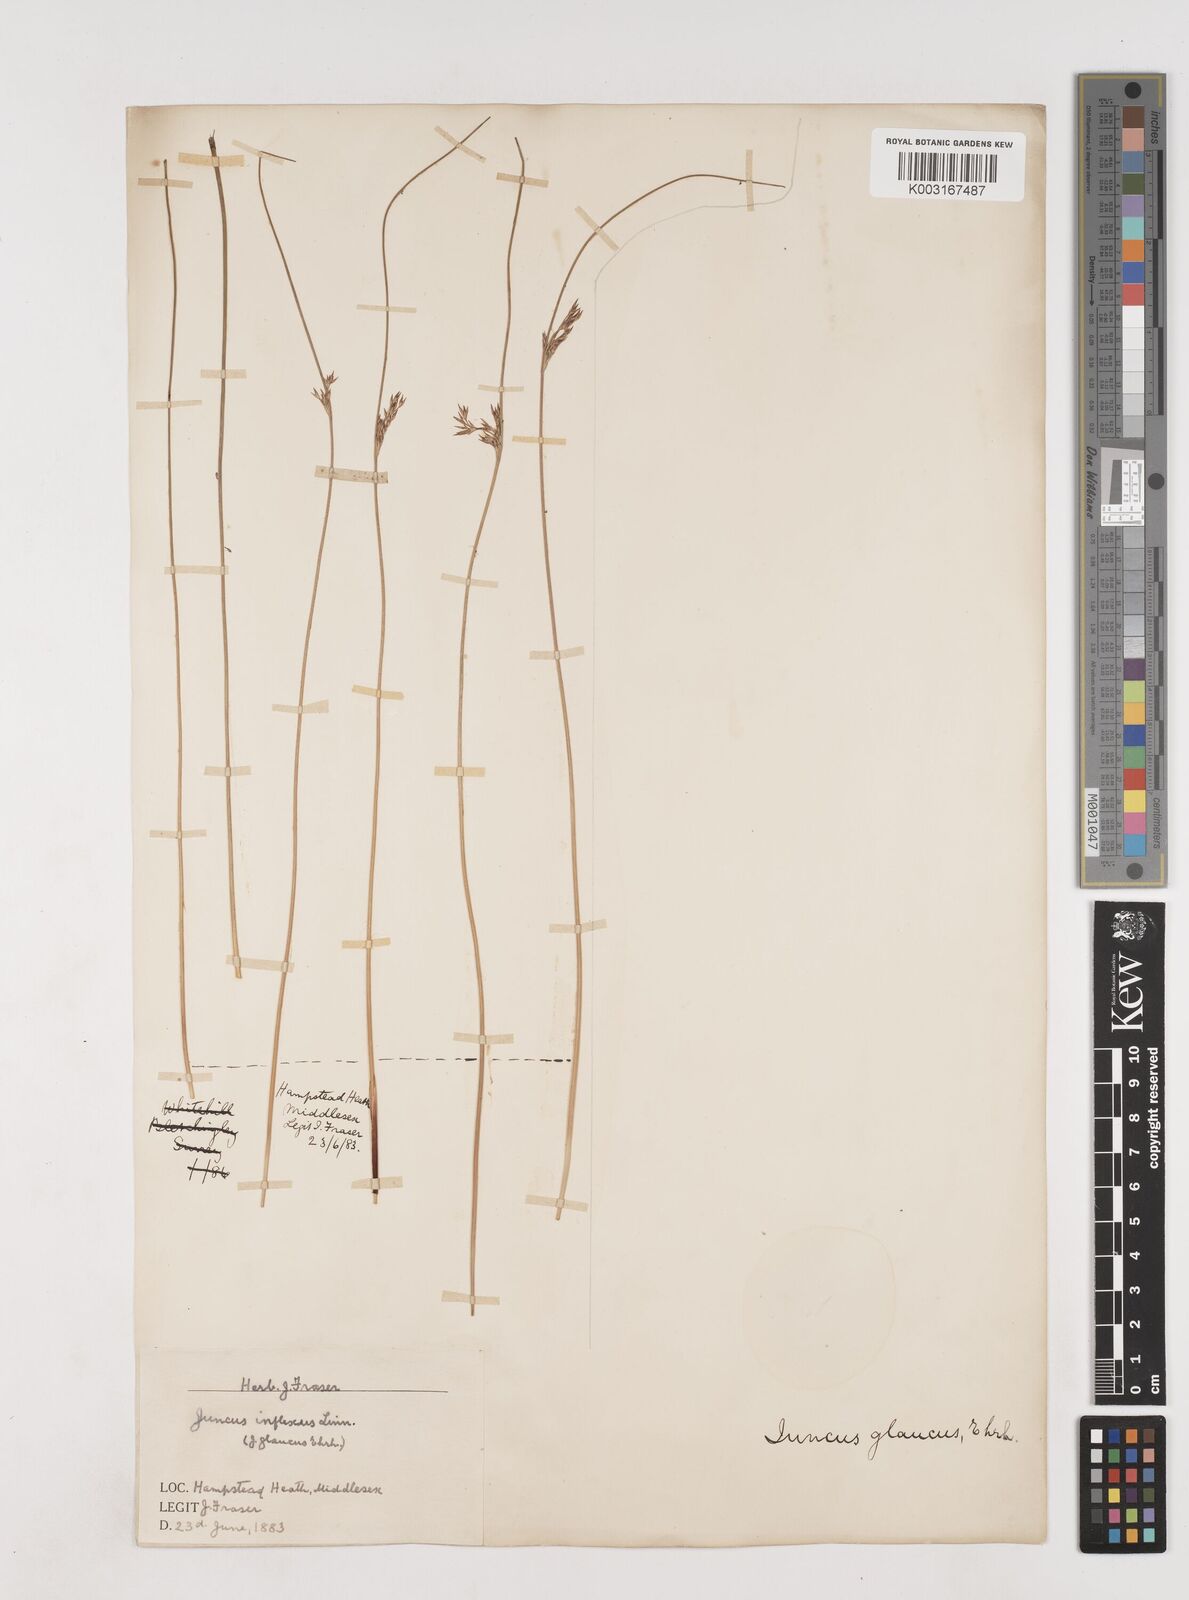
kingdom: Plantae
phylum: Tracheophyta
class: Liliopsida
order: Poales
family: Juncaceae
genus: Juncus
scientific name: Juncus inflexus
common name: Hard rush
